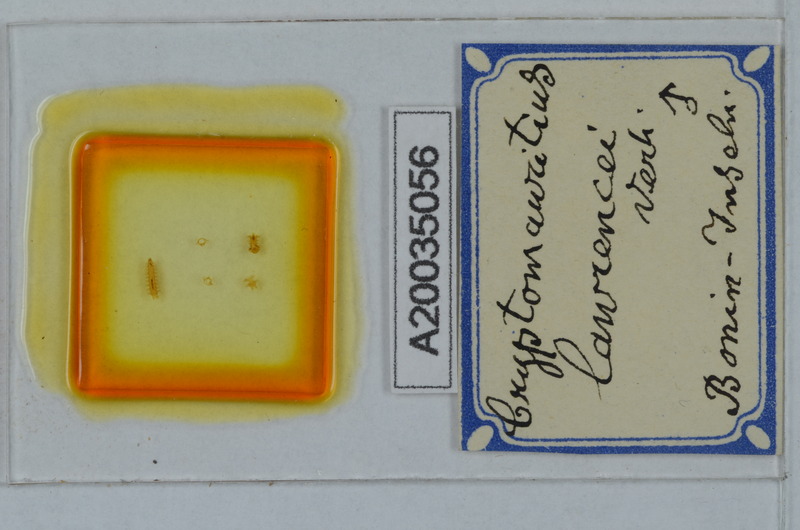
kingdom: Animalia
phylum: Arthropoda
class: Diplopoda
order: Polydesmida
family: Cryptodesmidae
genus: Cryptodesmus
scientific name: Cryptodesmus
